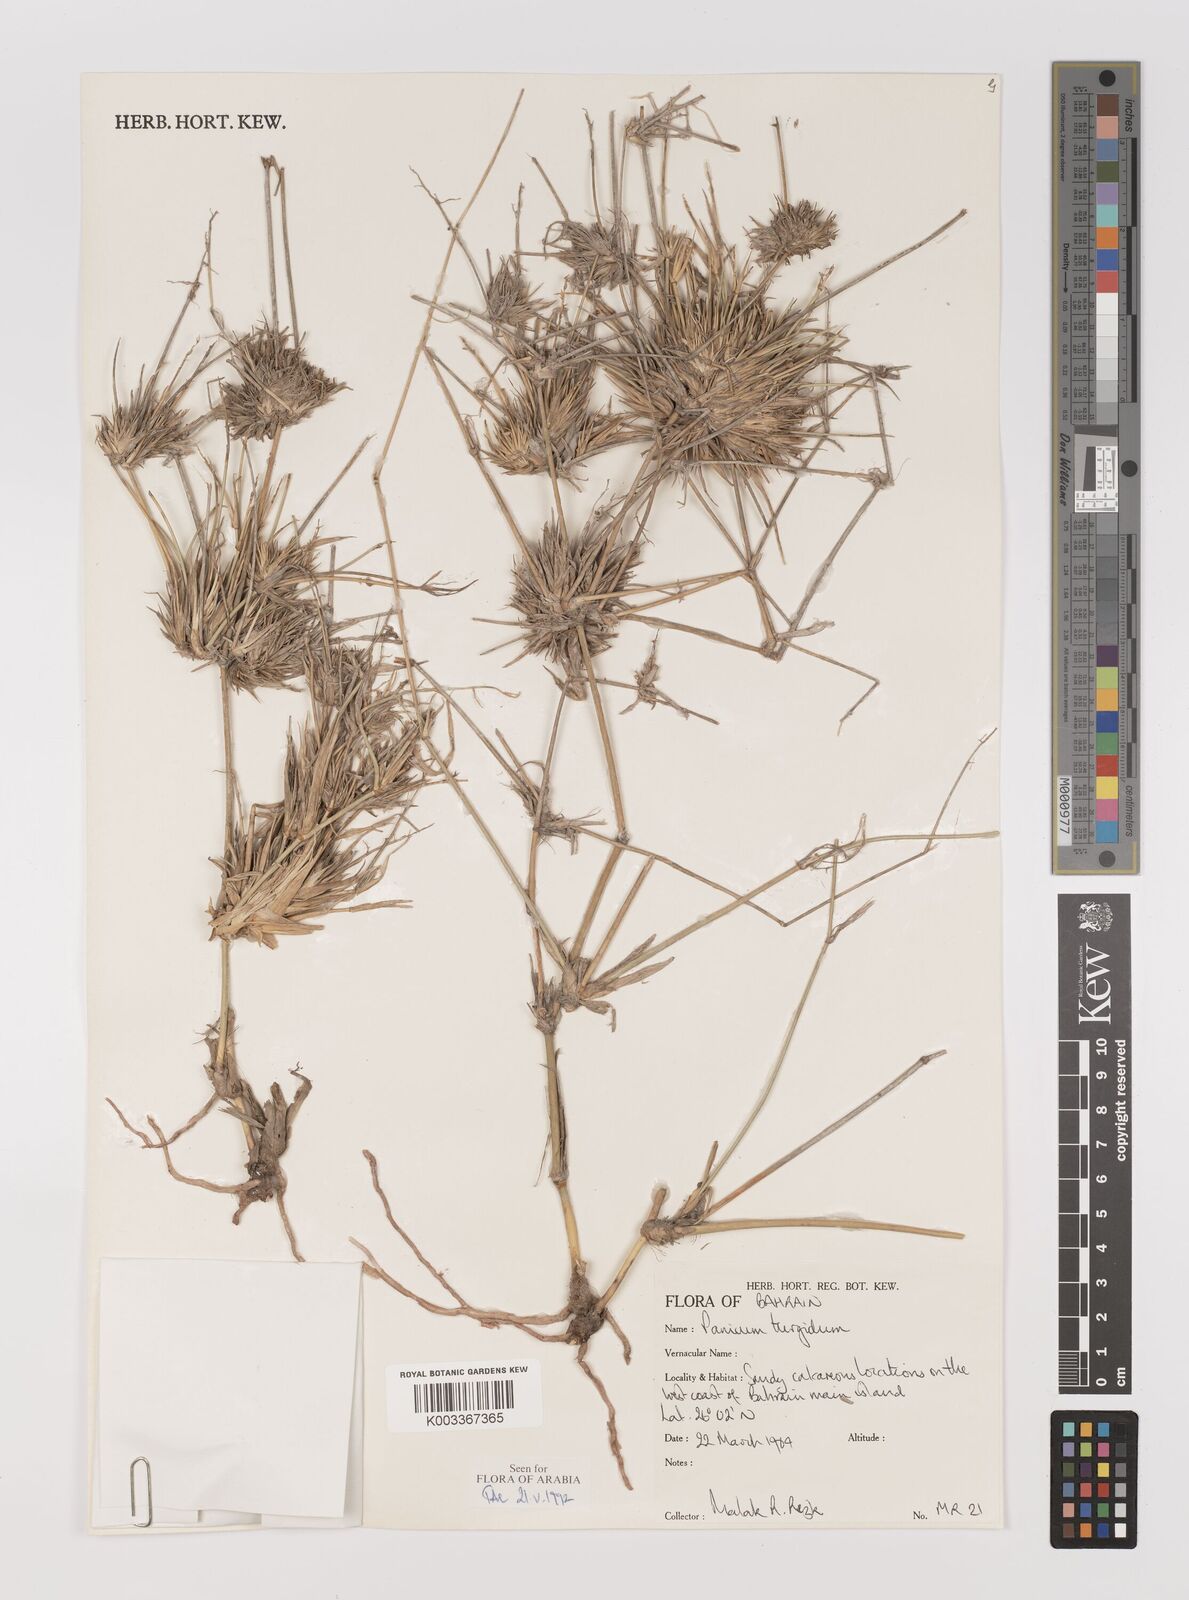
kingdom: Plantae
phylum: Tracheophyta
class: Liliopsida
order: Poales
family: Poaceae
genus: Panicum
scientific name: Panicum turgidum
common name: Desert grass
